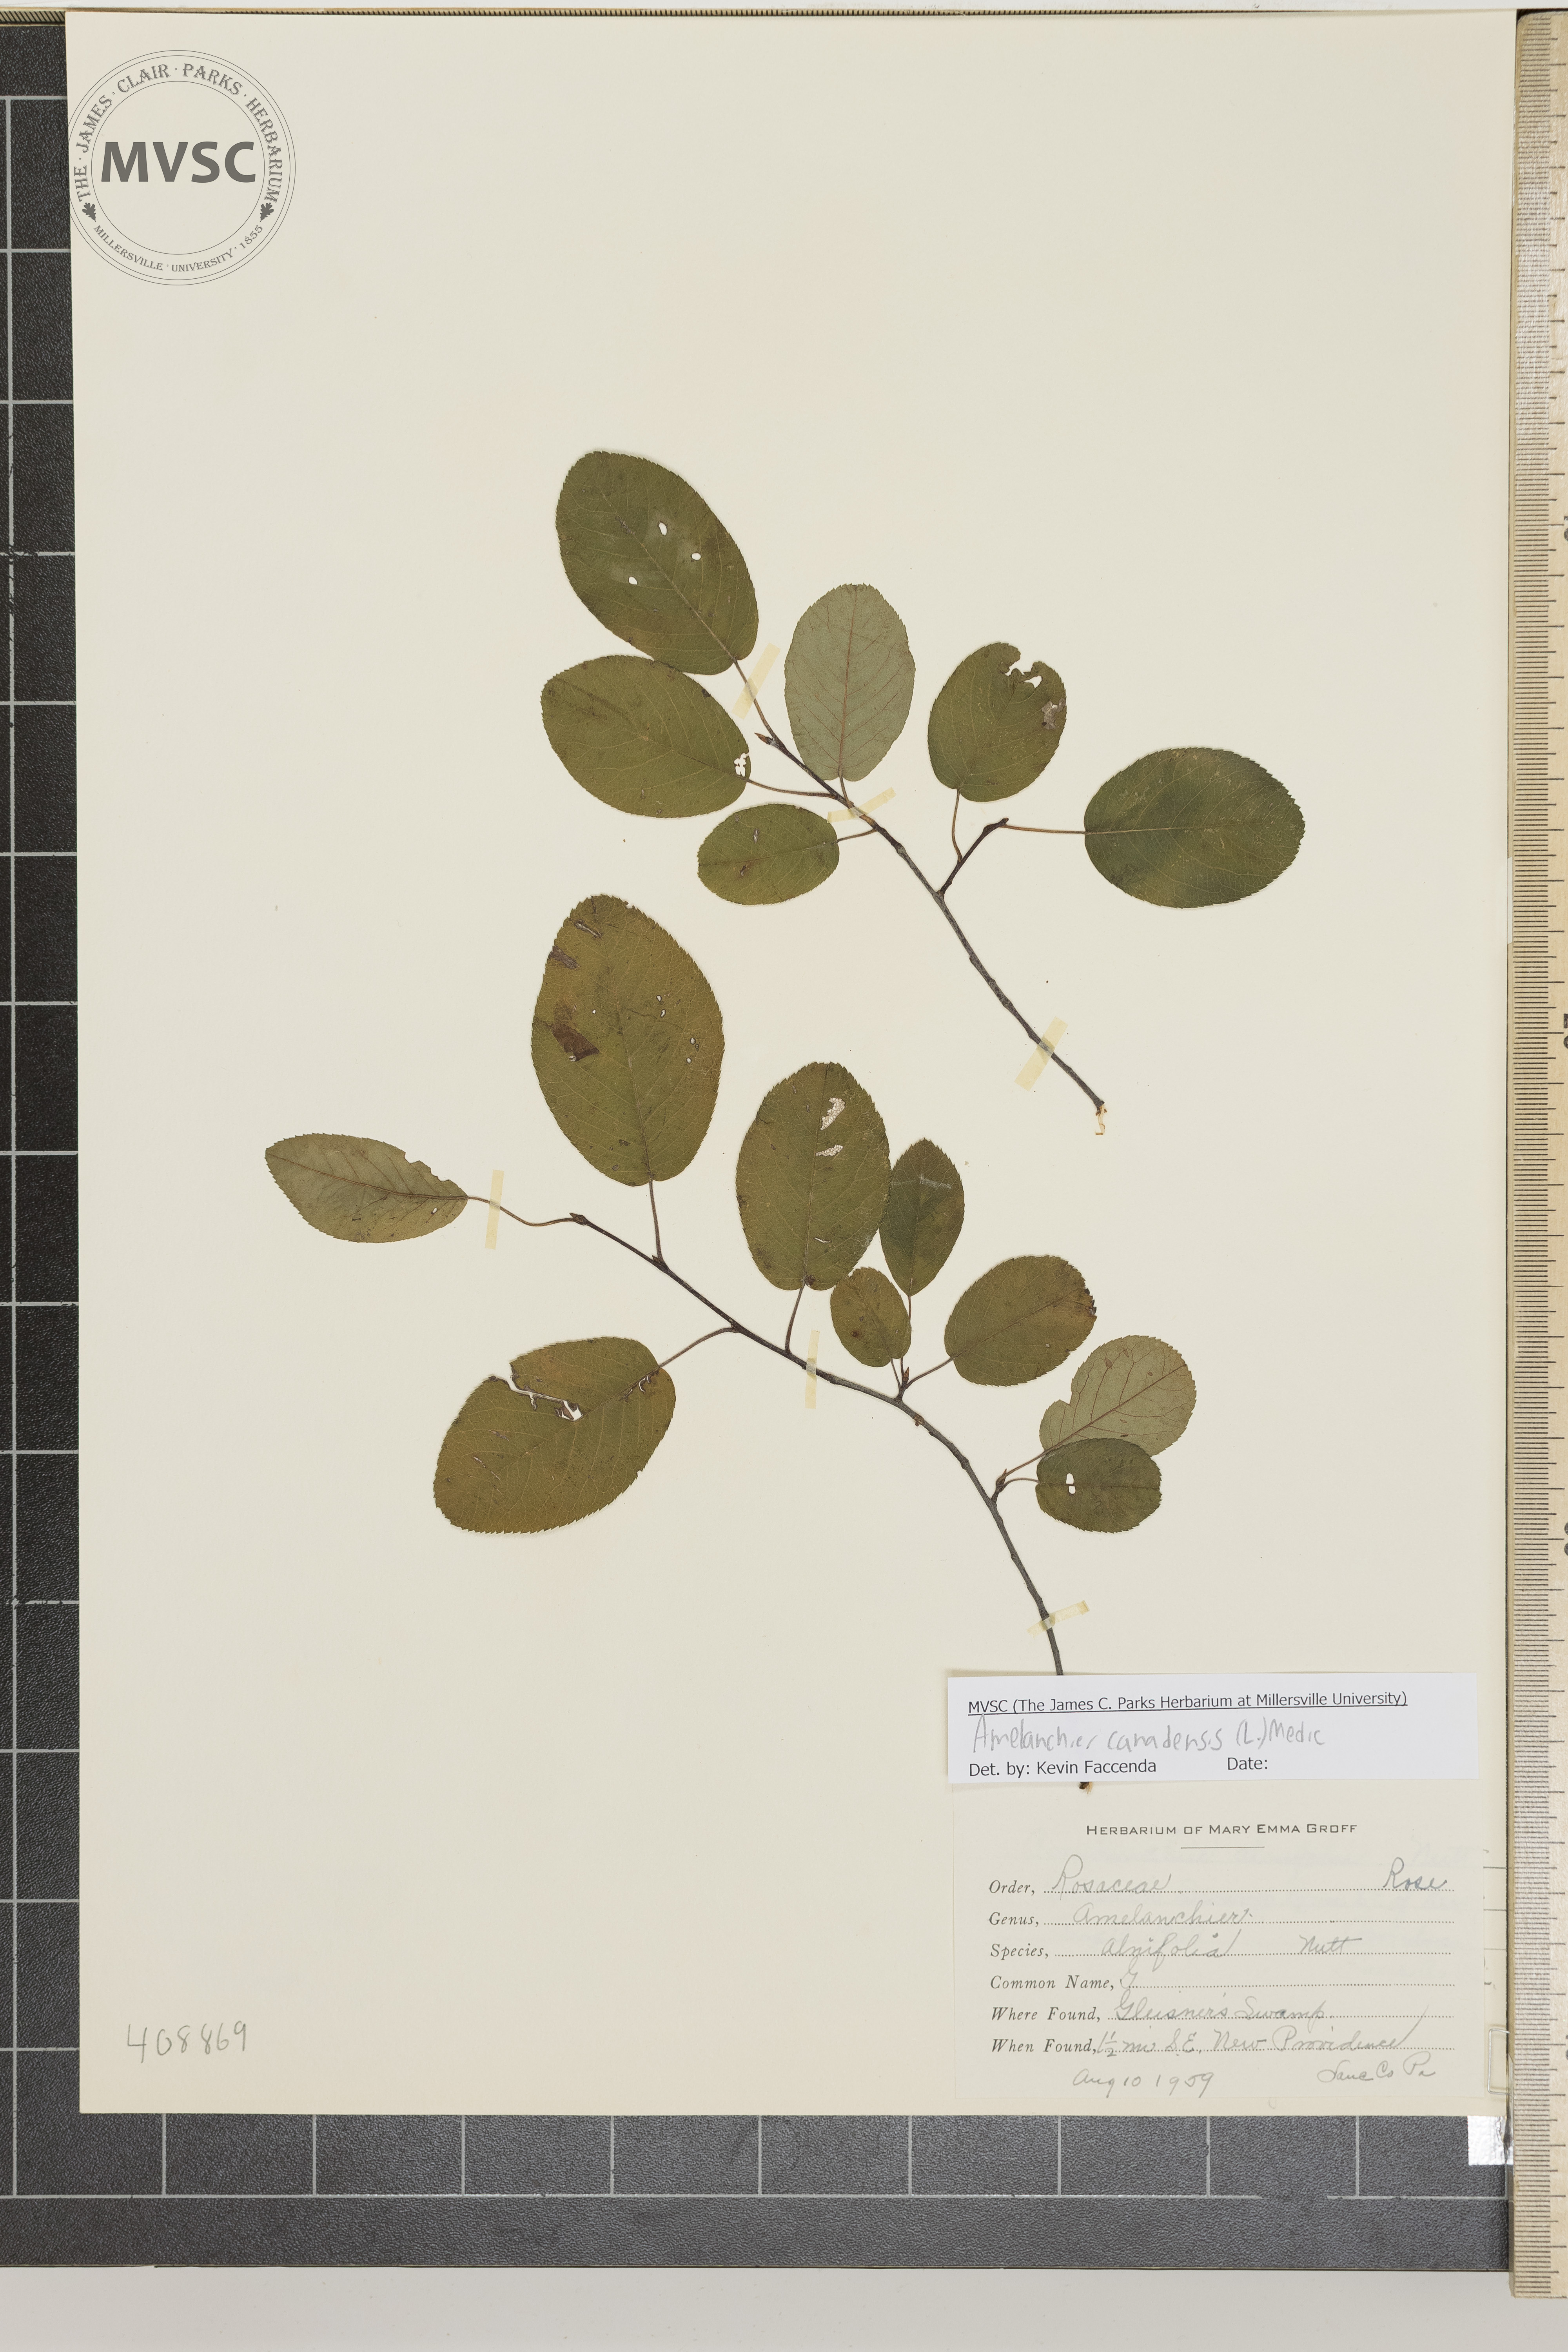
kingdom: Plantae
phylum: Tracheophyta
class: Magnoliopsida
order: Rosales
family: Rosaceae
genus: Amelanchier
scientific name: Amelanchier canadensis
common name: Thicket serviceberry
